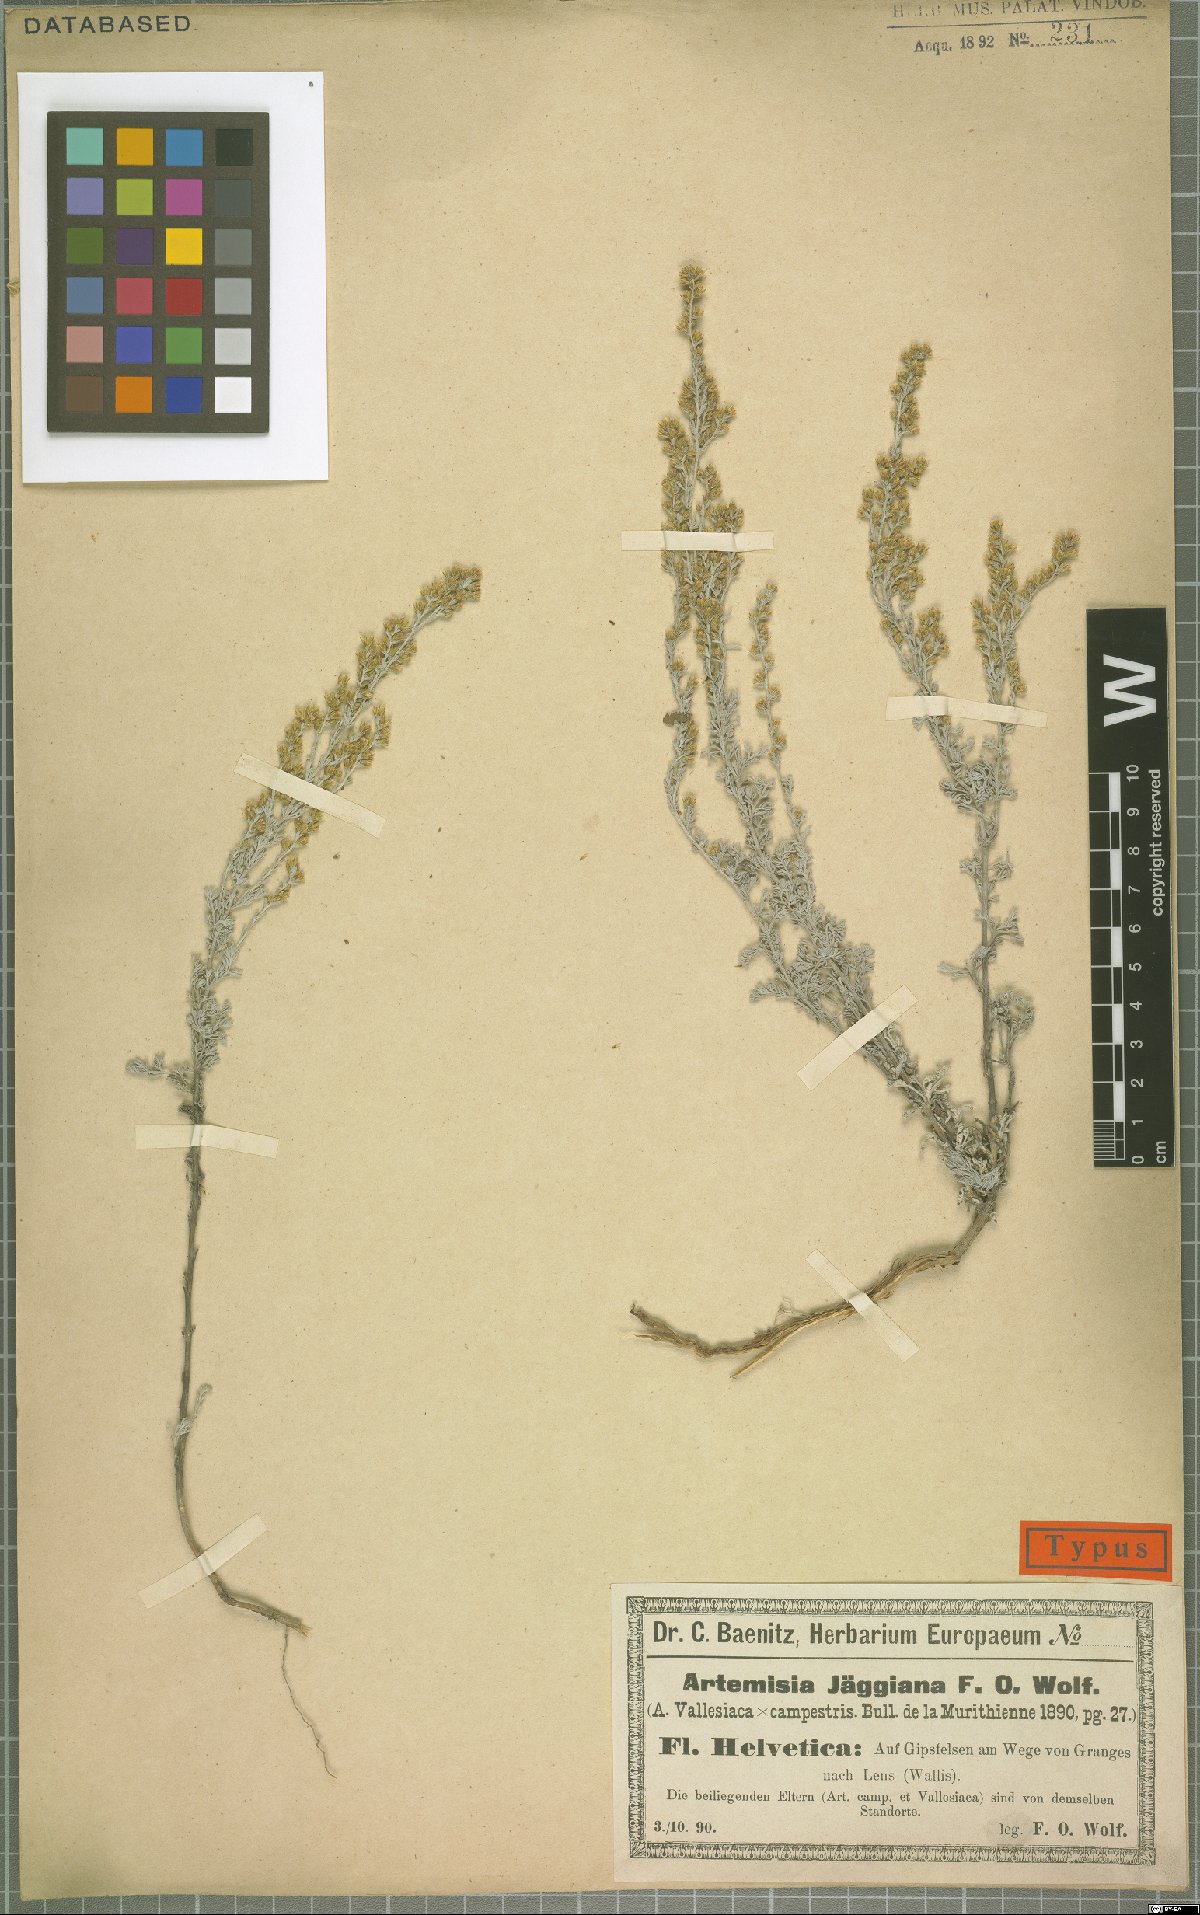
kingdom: Plantae
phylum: Tracheophyta
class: Magnoliopsida
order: Asterales
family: Asteraceae
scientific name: Asteraceae
